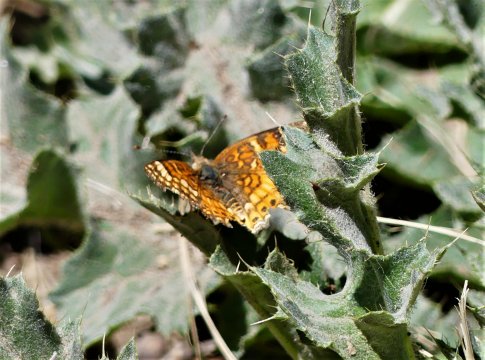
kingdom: Animalia
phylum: Arthropoda
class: Insecta
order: Lepidoptera
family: Nymphalidae
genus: Phyciodes
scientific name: Phyciodes orseis
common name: California Crescent
